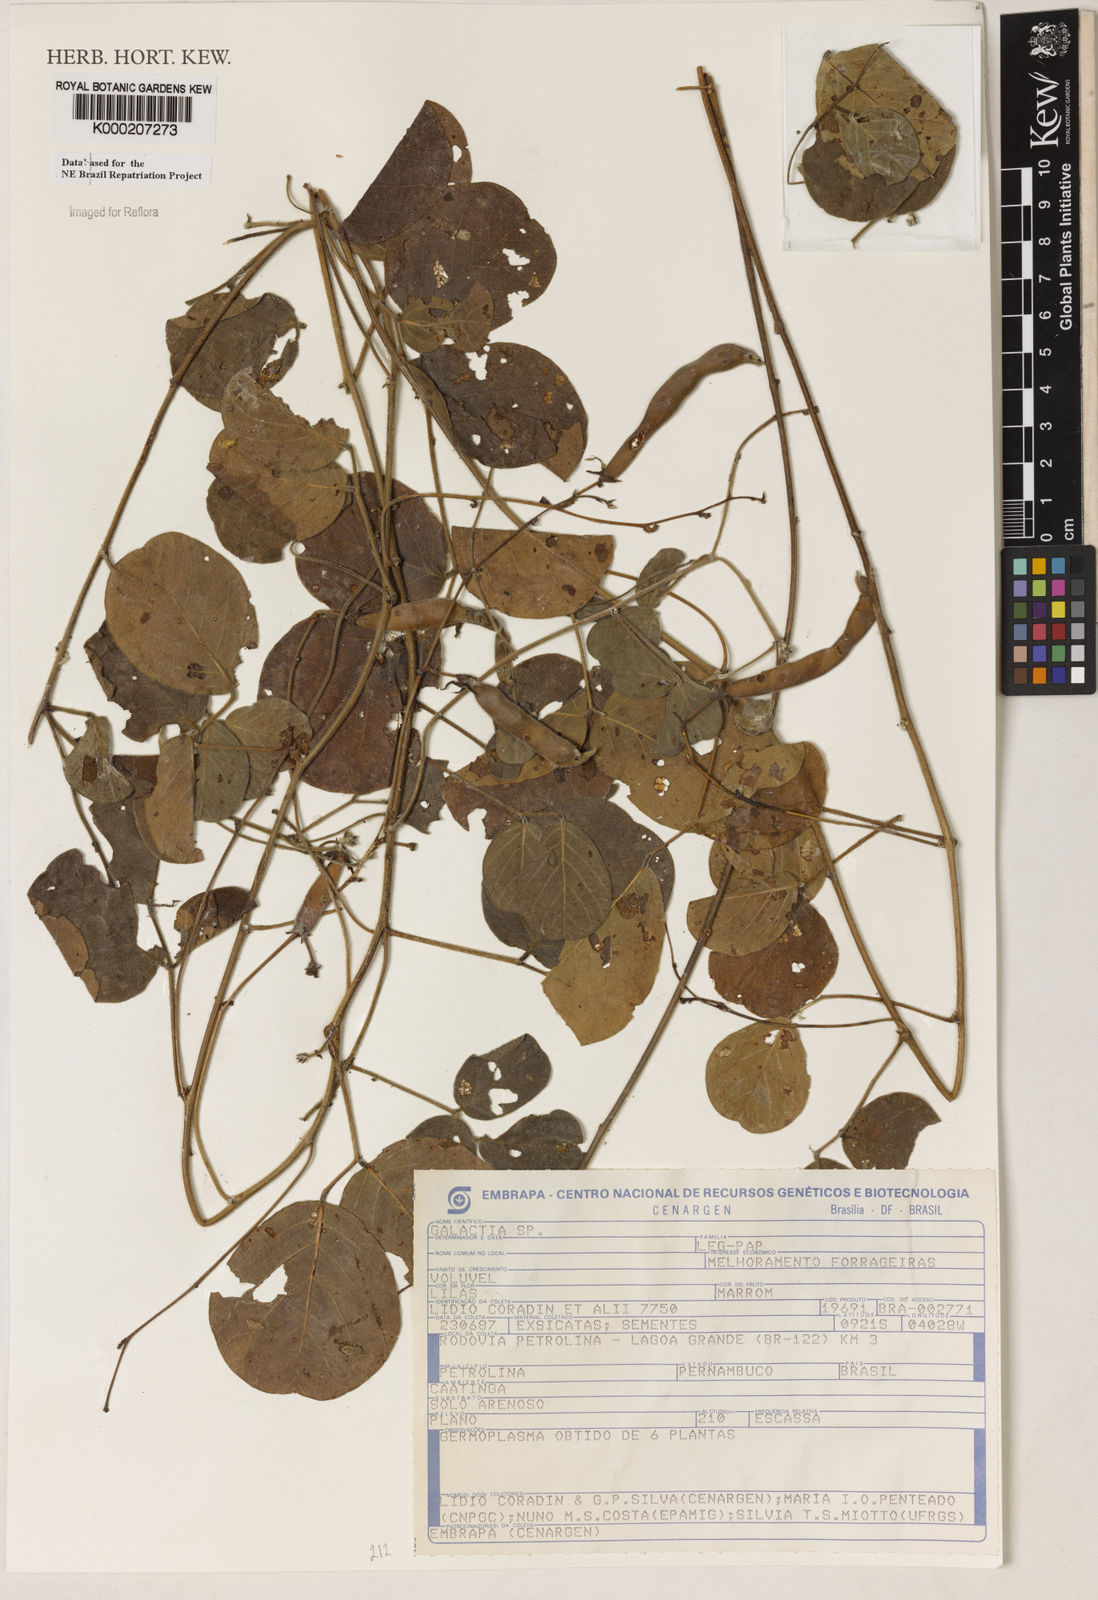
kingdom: Plantae
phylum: Tracheophyta
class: Magnoliopsida
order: Fabales
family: Fabaceae
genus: Galactia
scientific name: Galactia
